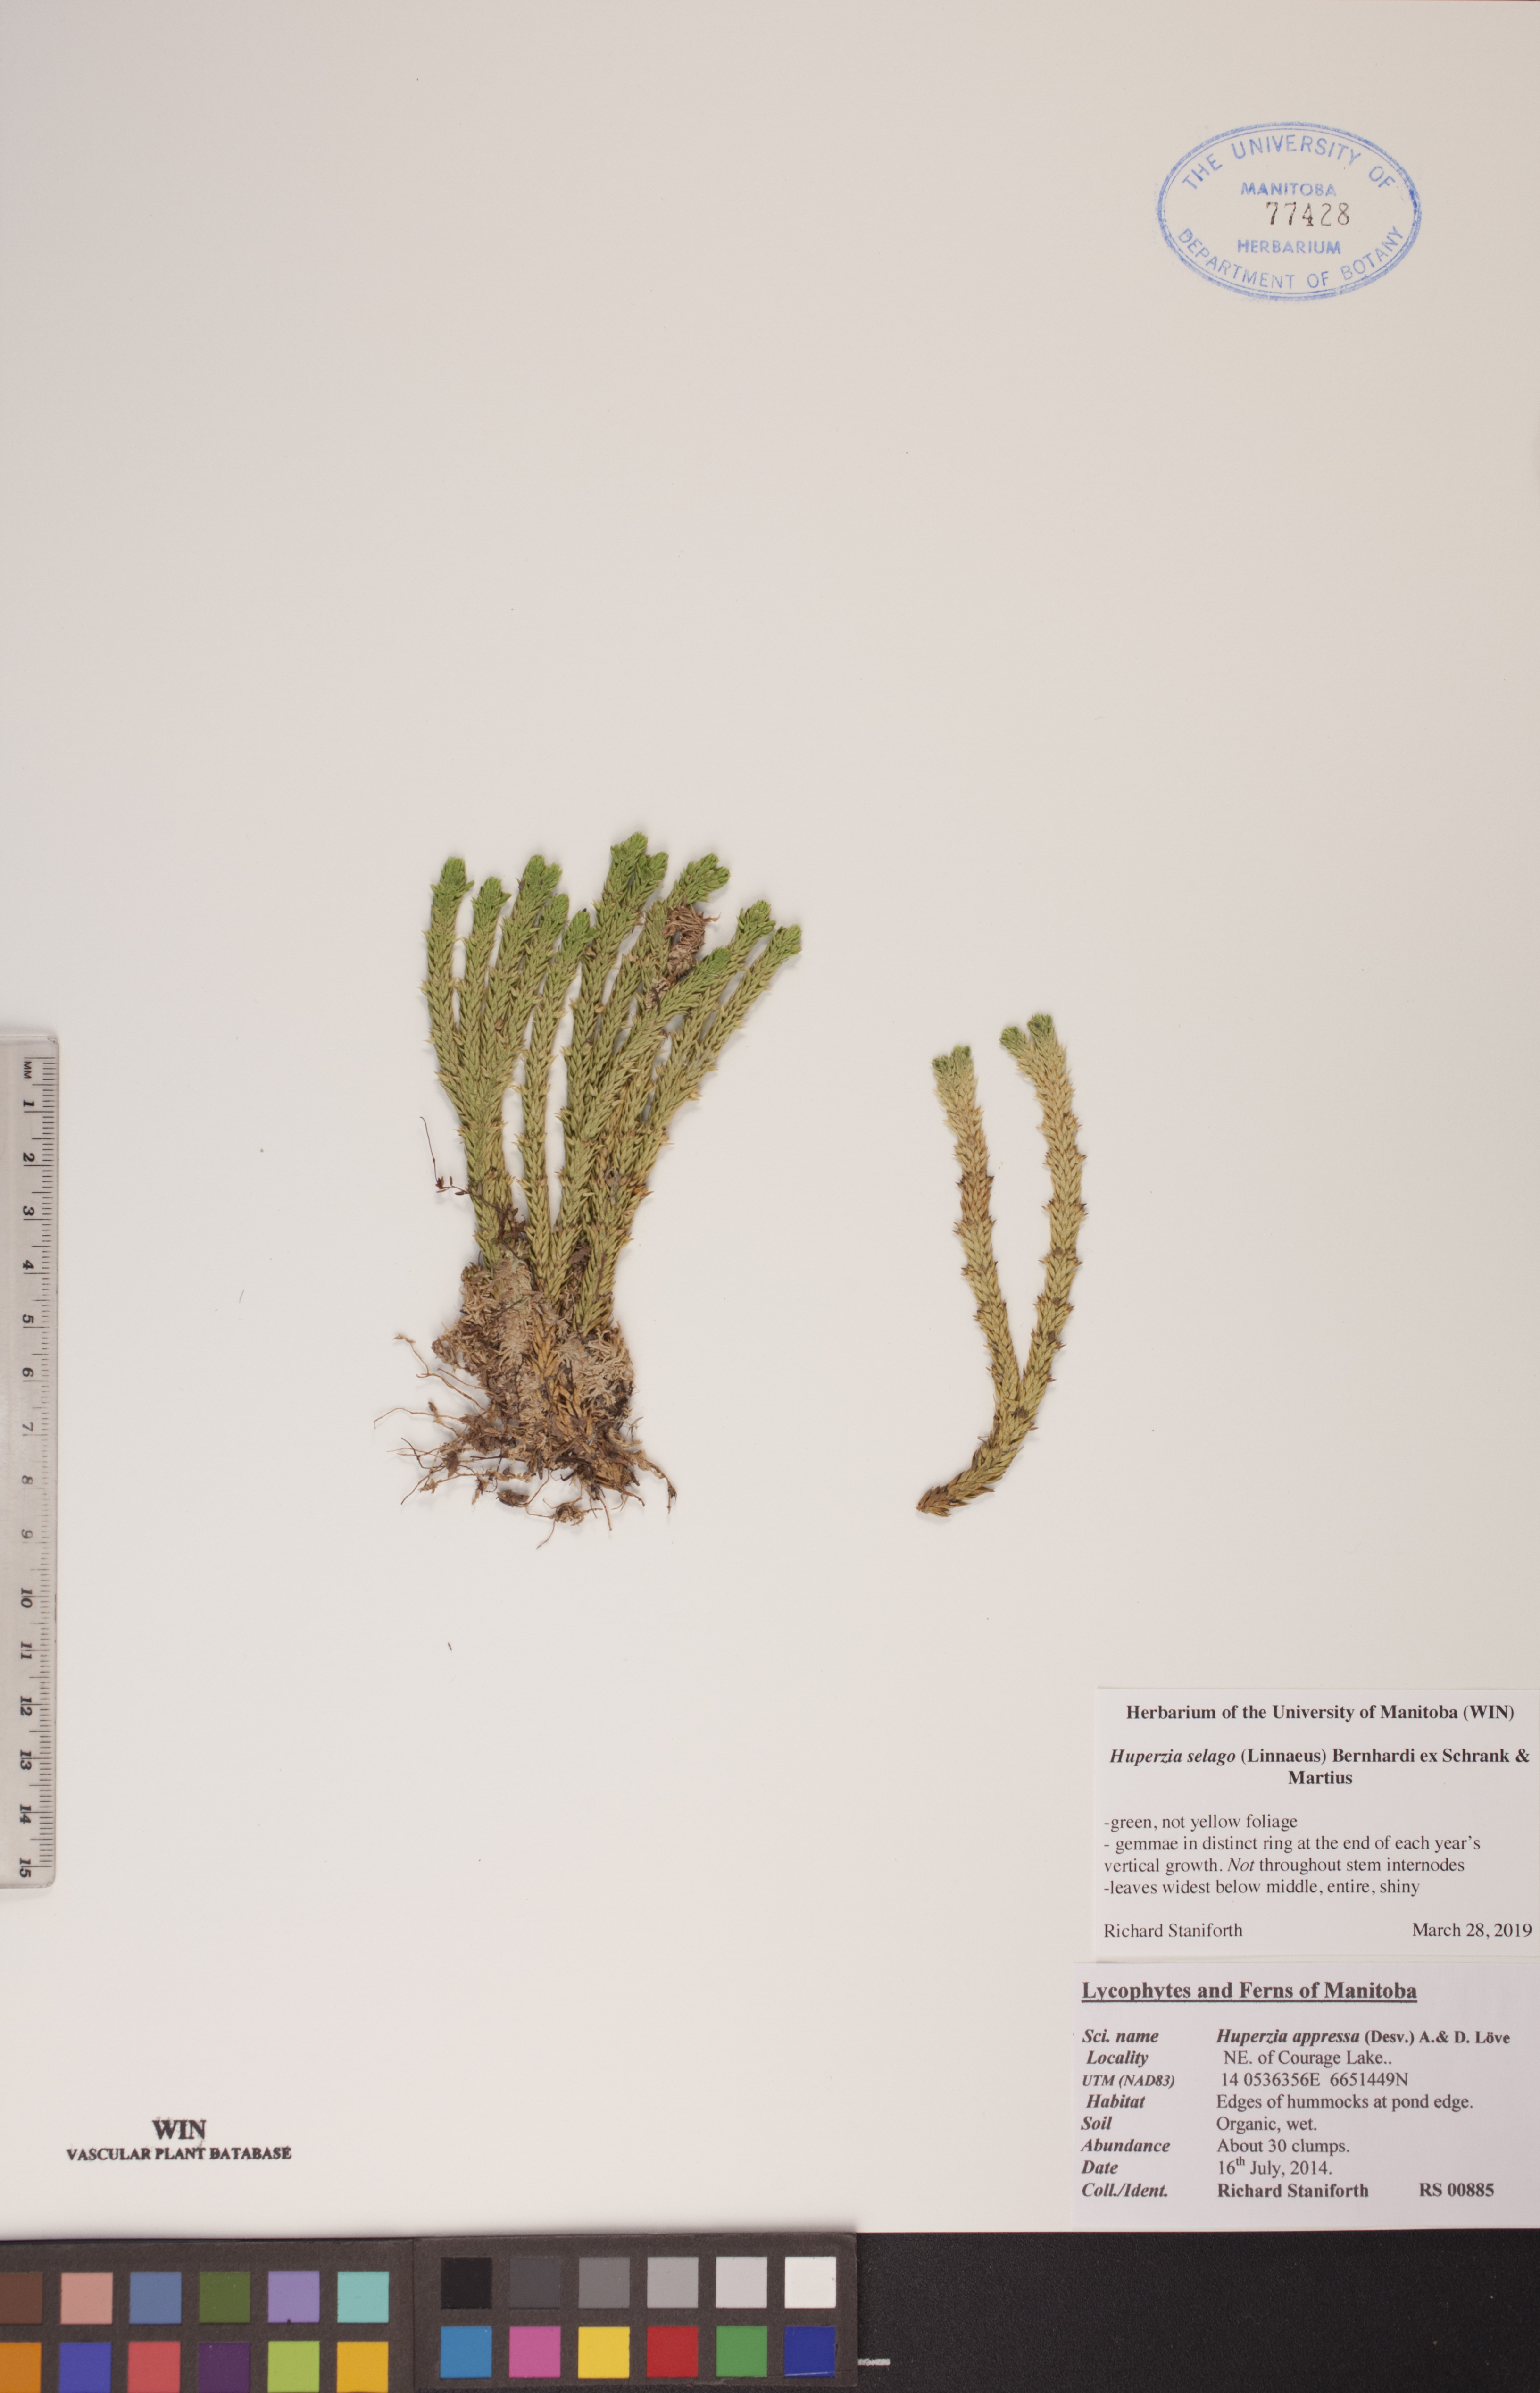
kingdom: Plantae
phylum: Tracheophyta
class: Lycopodiopsida
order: Lycopodiales
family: Lycopodiaceae
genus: Huperzia
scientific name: Huperzia selago
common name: Northern firmoss
